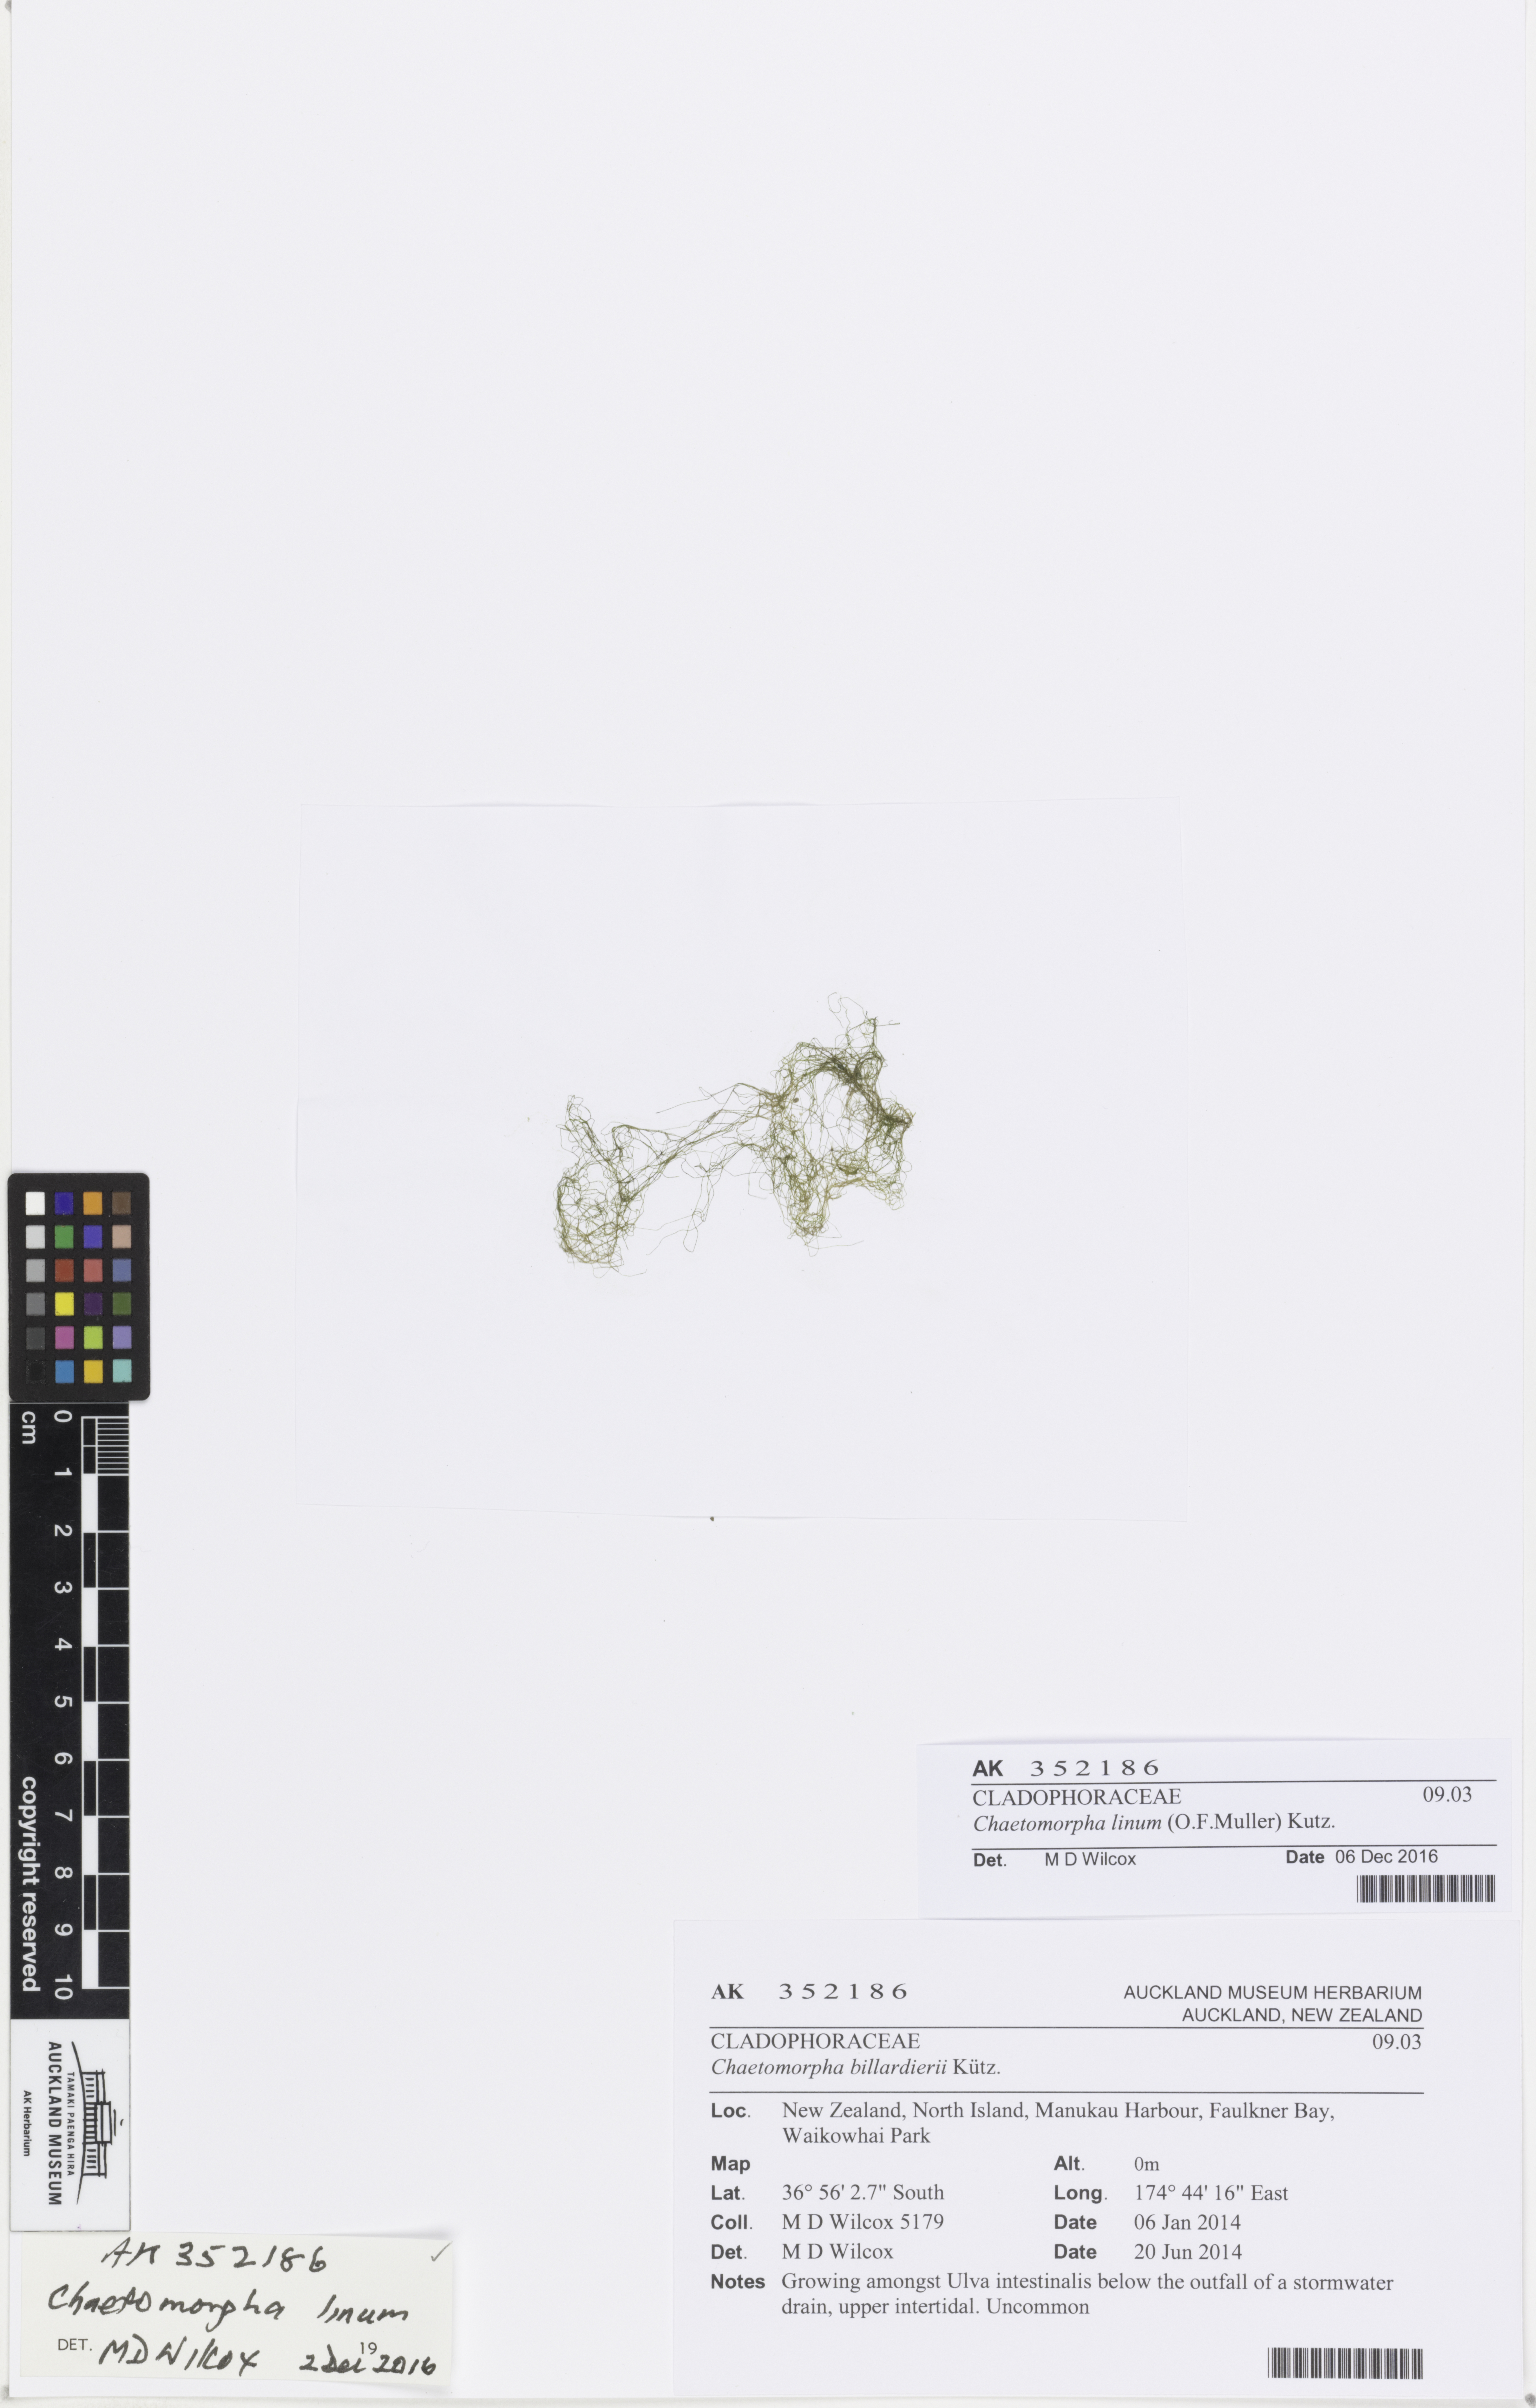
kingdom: Plantae
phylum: Chlorophyta
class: Ulvophyceae
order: Cladophorales
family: Cladophoraceae
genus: Chaetomorpha
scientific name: Chaetomorpha linum
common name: Sea hair
